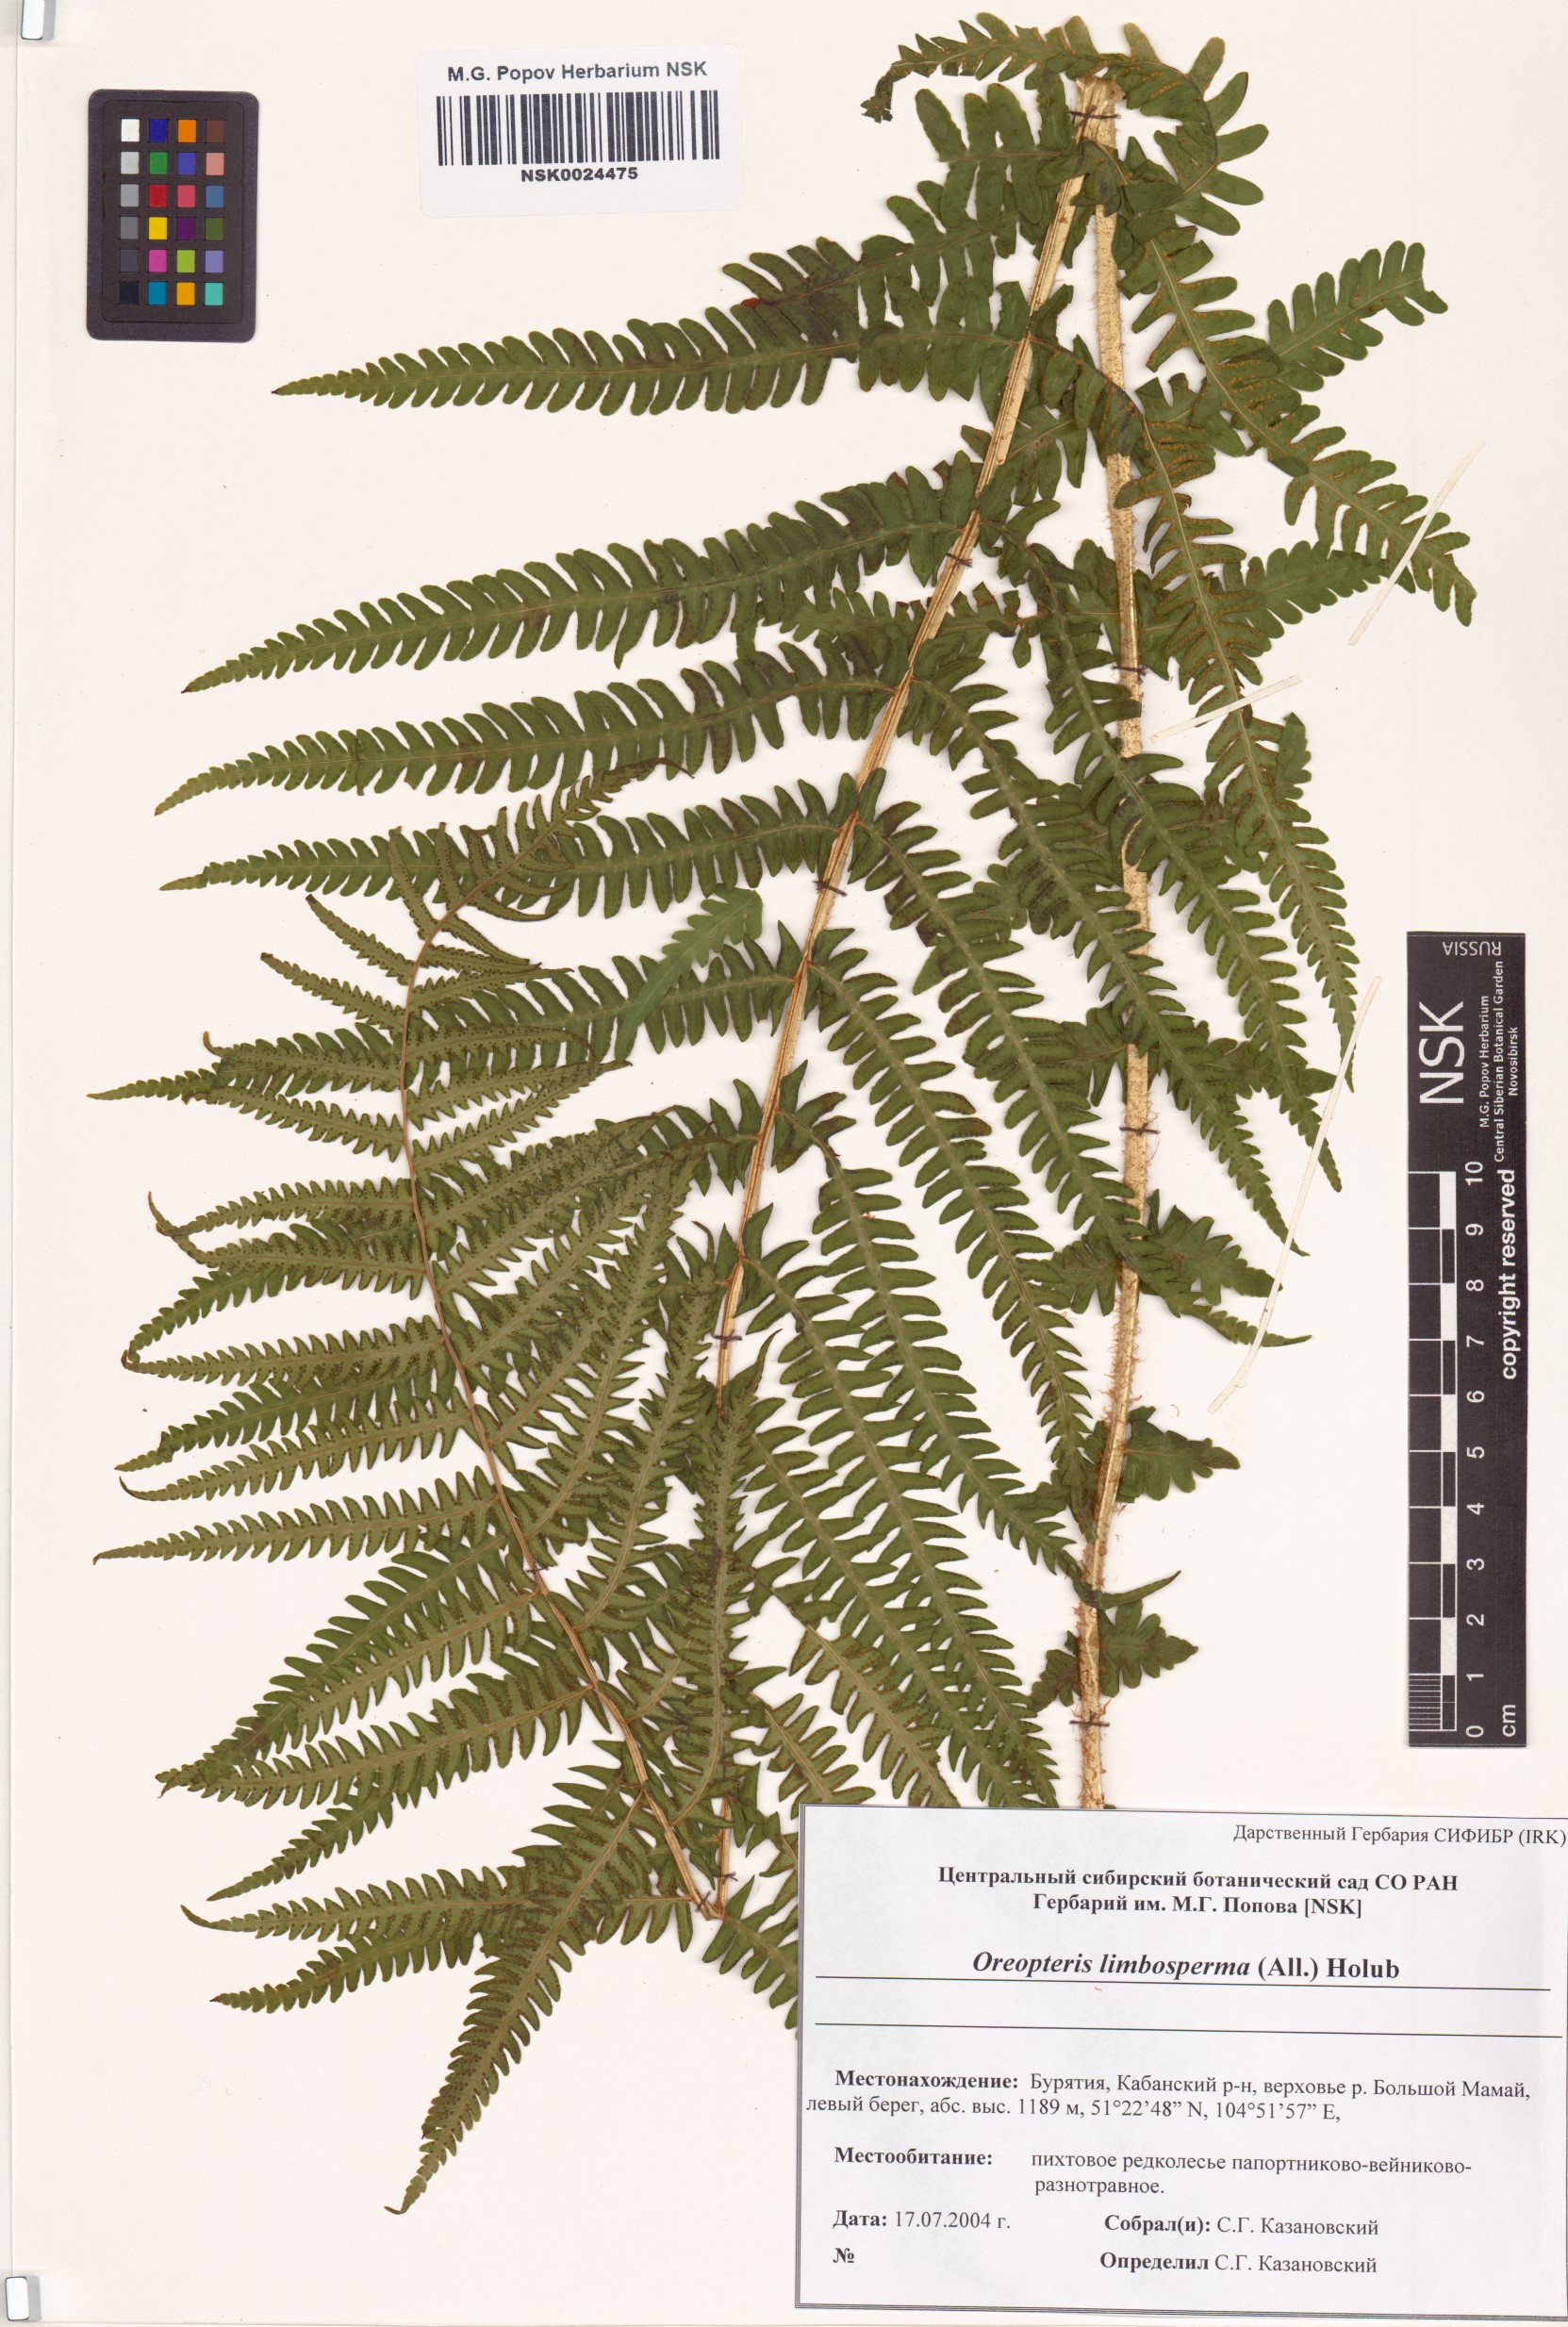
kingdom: Plantae
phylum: Tracheophyta
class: Polypodiopsida
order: Polypodiales
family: Thelypteridaceae
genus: Oreopteris
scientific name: Oreopteris limbosperma
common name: Lemon-scented fern
